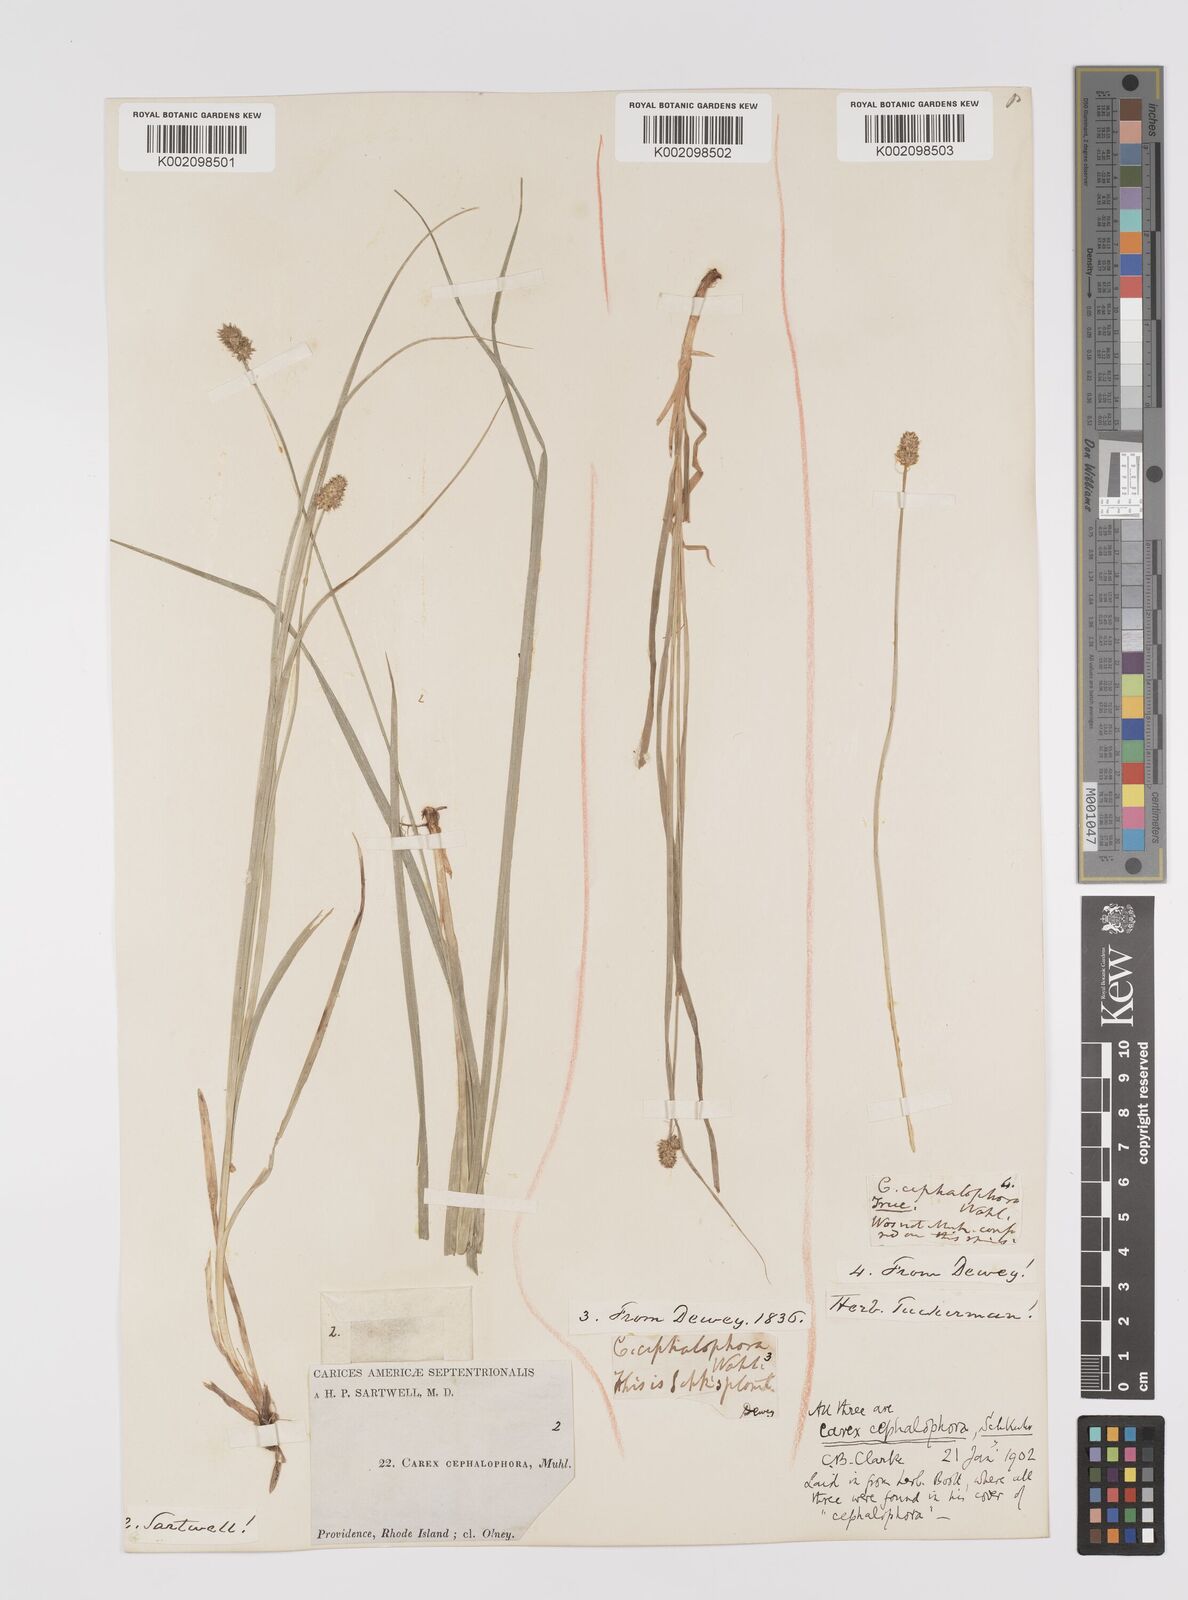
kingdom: Plantae
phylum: Tracheophyta
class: Liliopsida
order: Poales
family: Cyperaceae
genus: Carex
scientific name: Carex cephalophora
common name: Oval-headed sedge
